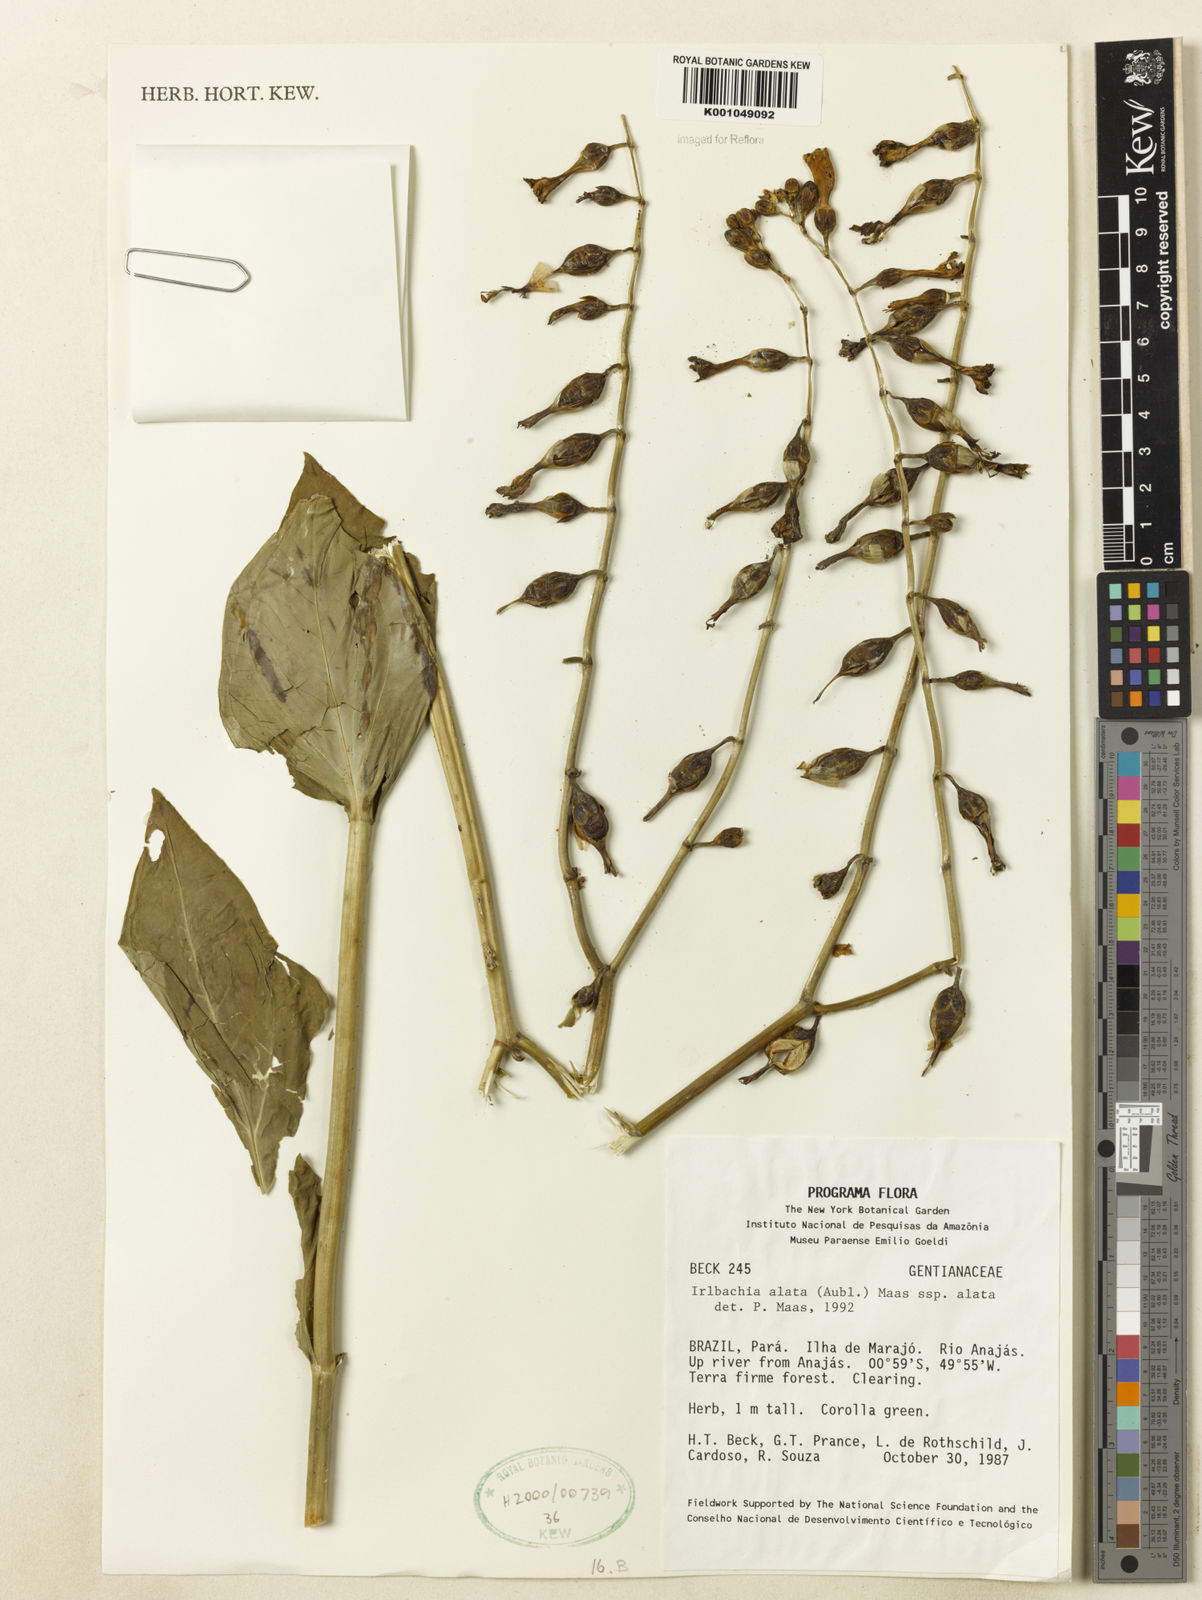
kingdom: Plantae
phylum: Tracheophyta
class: Magnoliopsida
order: Gentianales
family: Gentianaceae
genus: Chelonanthus
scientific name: Chelonanthus alatus
